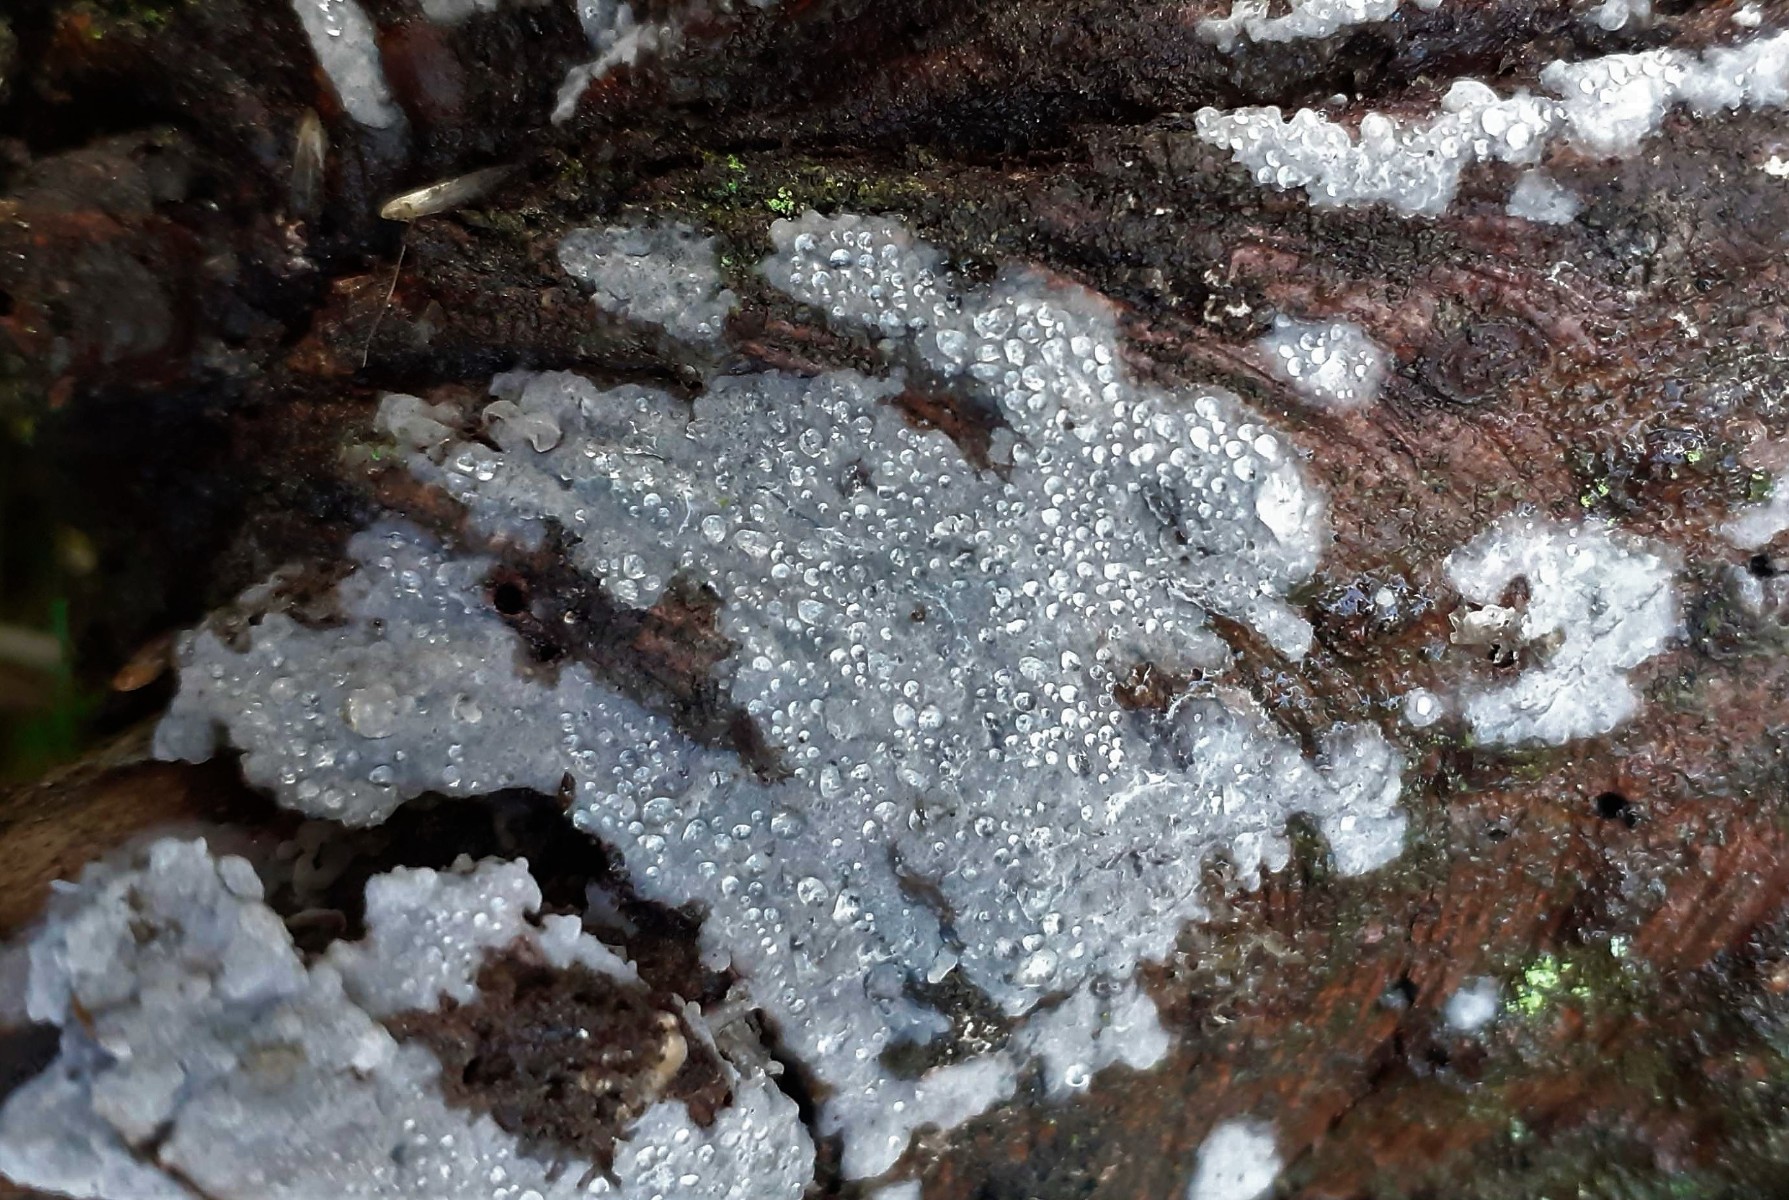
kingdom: Fungi
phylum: Basidiomycota
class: Agaricomycetes
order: Sebacinales
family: Sebacinaceae
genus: Sebacina
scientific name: Sebacina grisea
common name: blågrå bævrehinde
